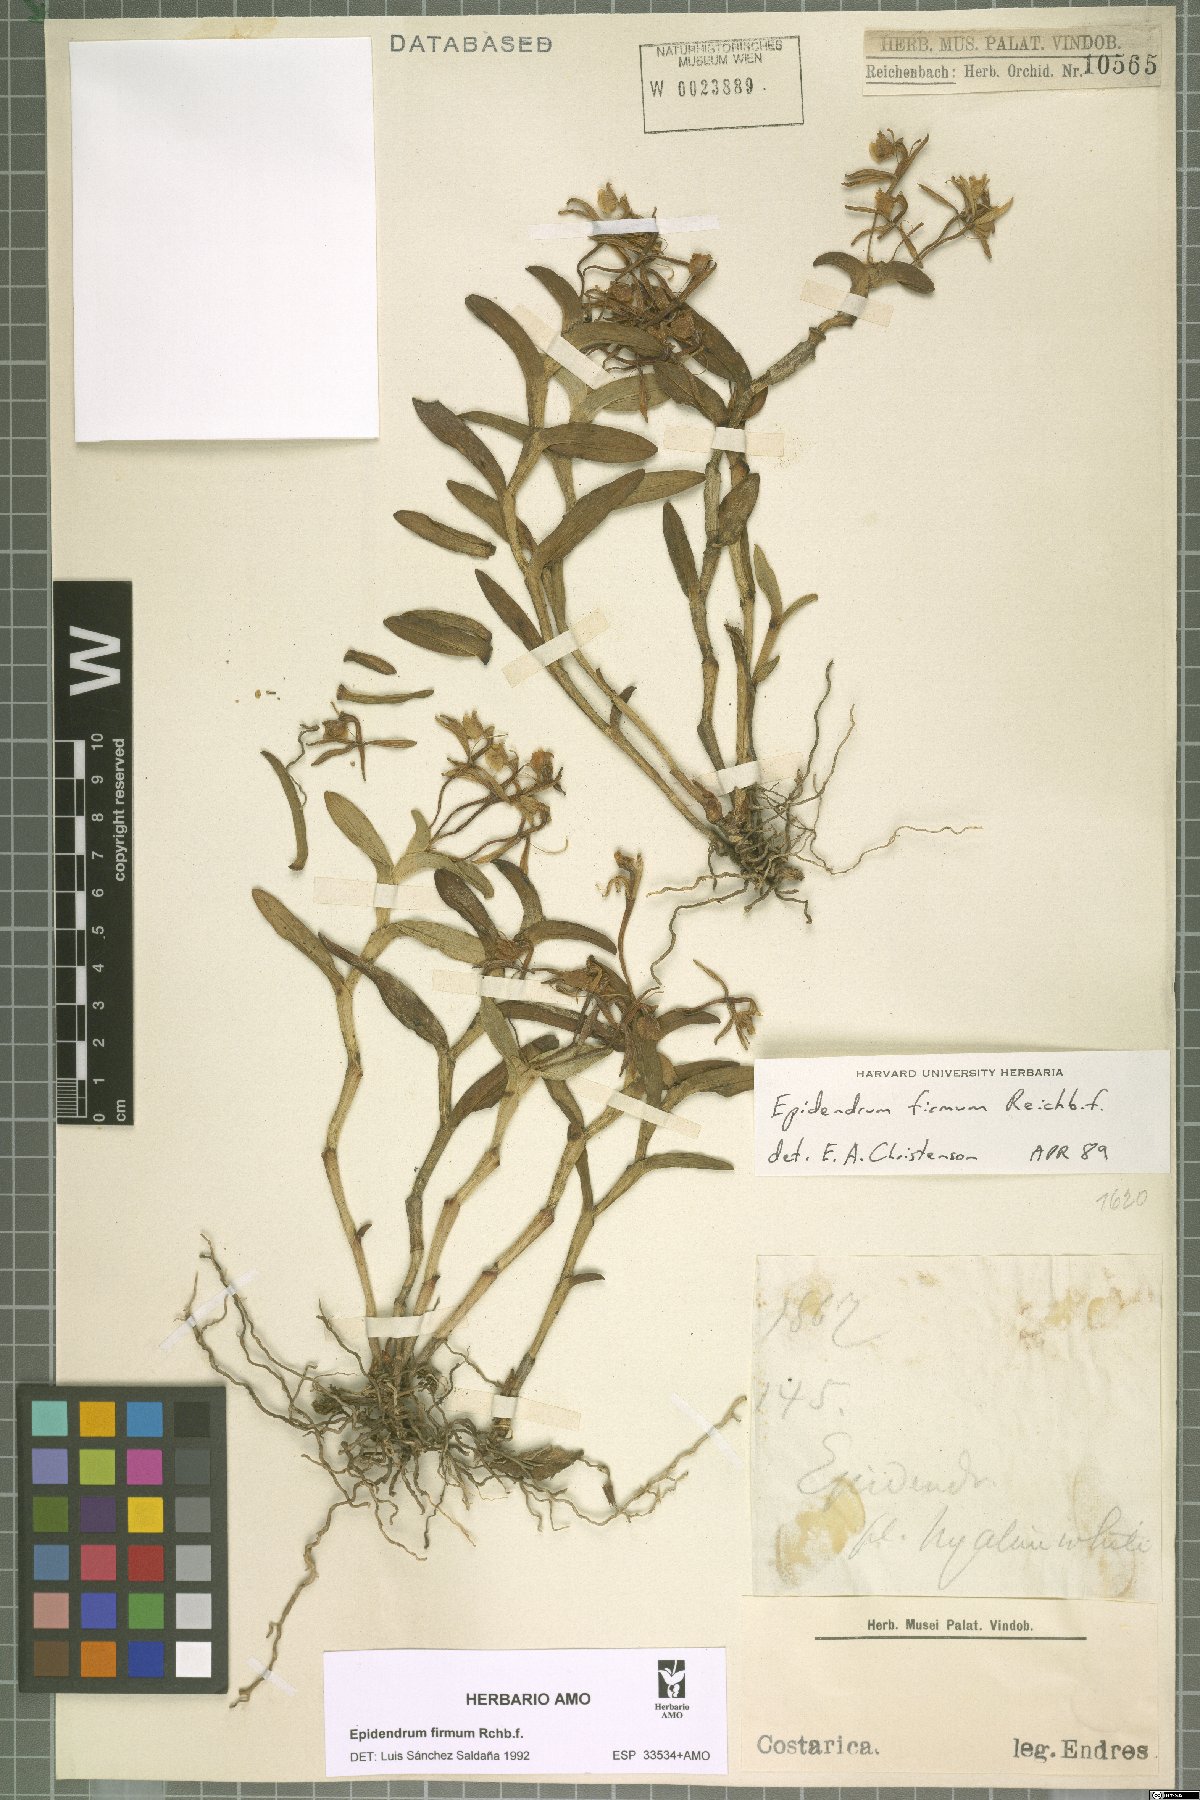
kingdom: Plantae
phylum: Tracheophyta
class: Liliopsida
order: Asparagales
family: Orchidaceae
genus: Epidendrum
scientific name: Epidendrum firmum
